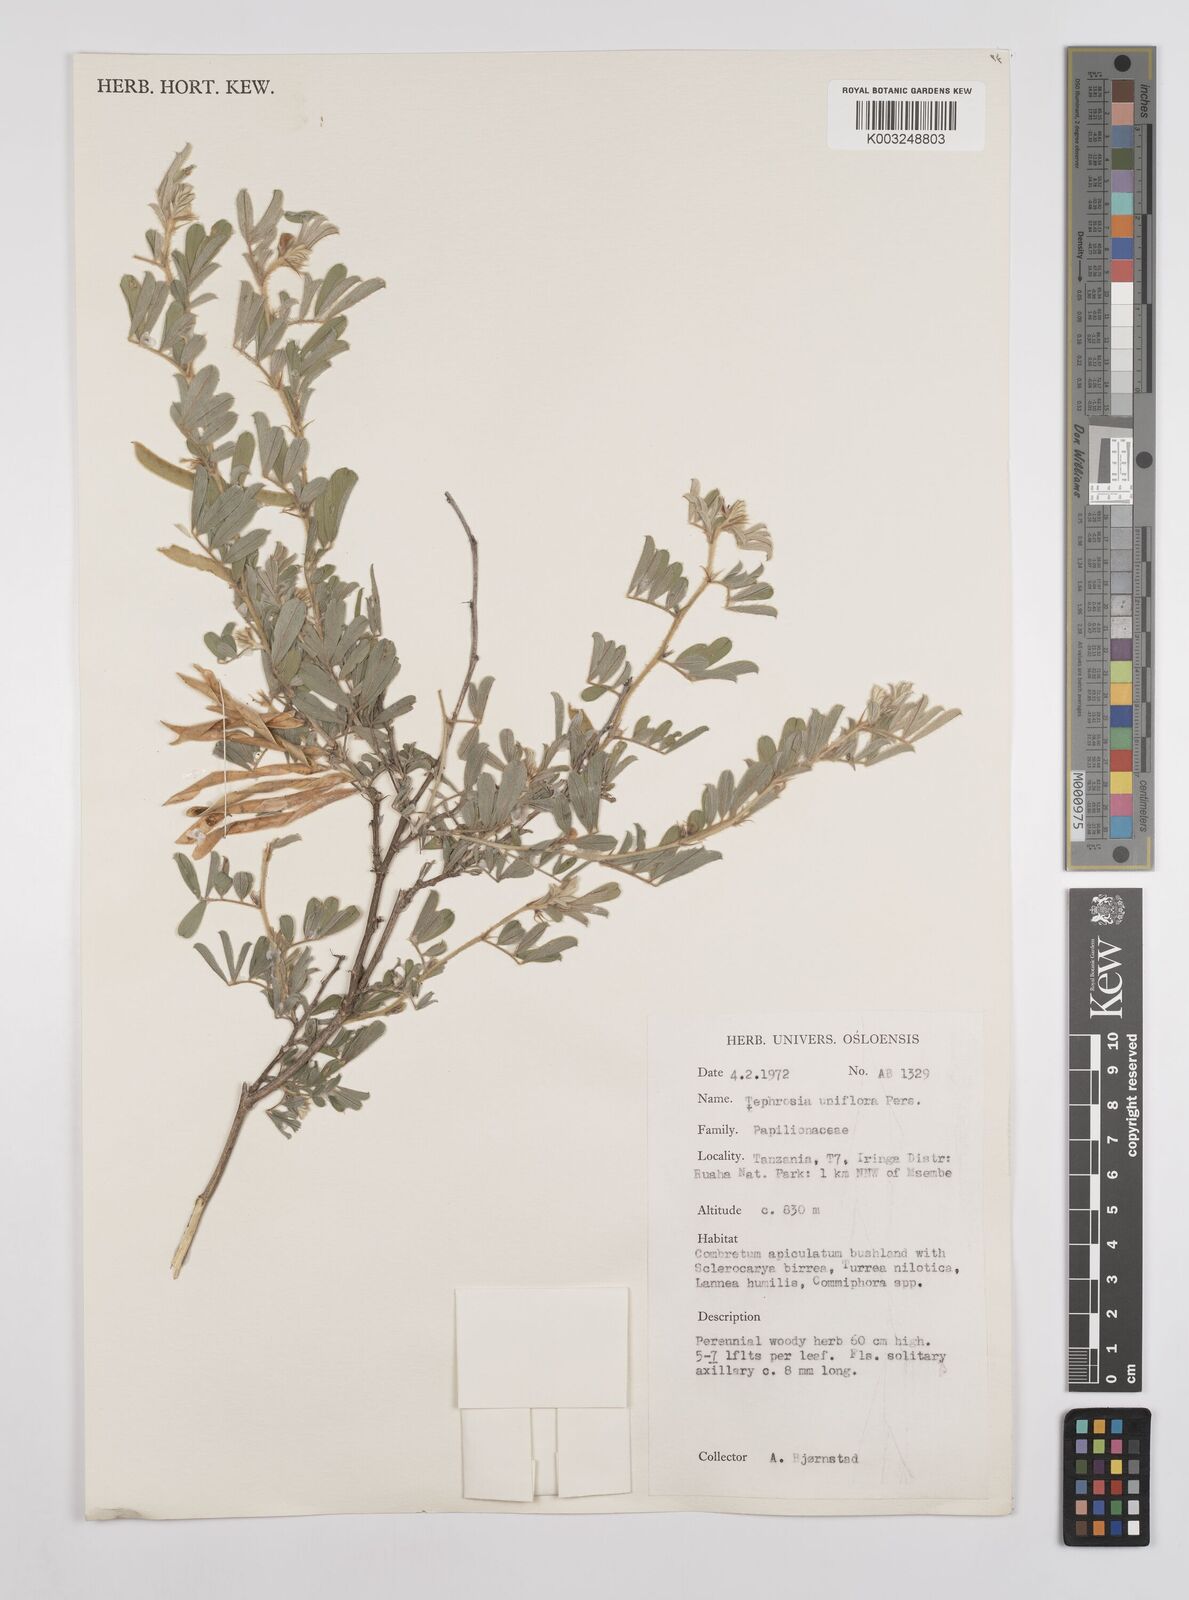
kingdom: Plantae
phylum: Tracheophyta
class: Magnoliopsida
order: Fabales
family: Fabaceae
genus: Tephrosia
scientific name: Tephrosia uniflora
